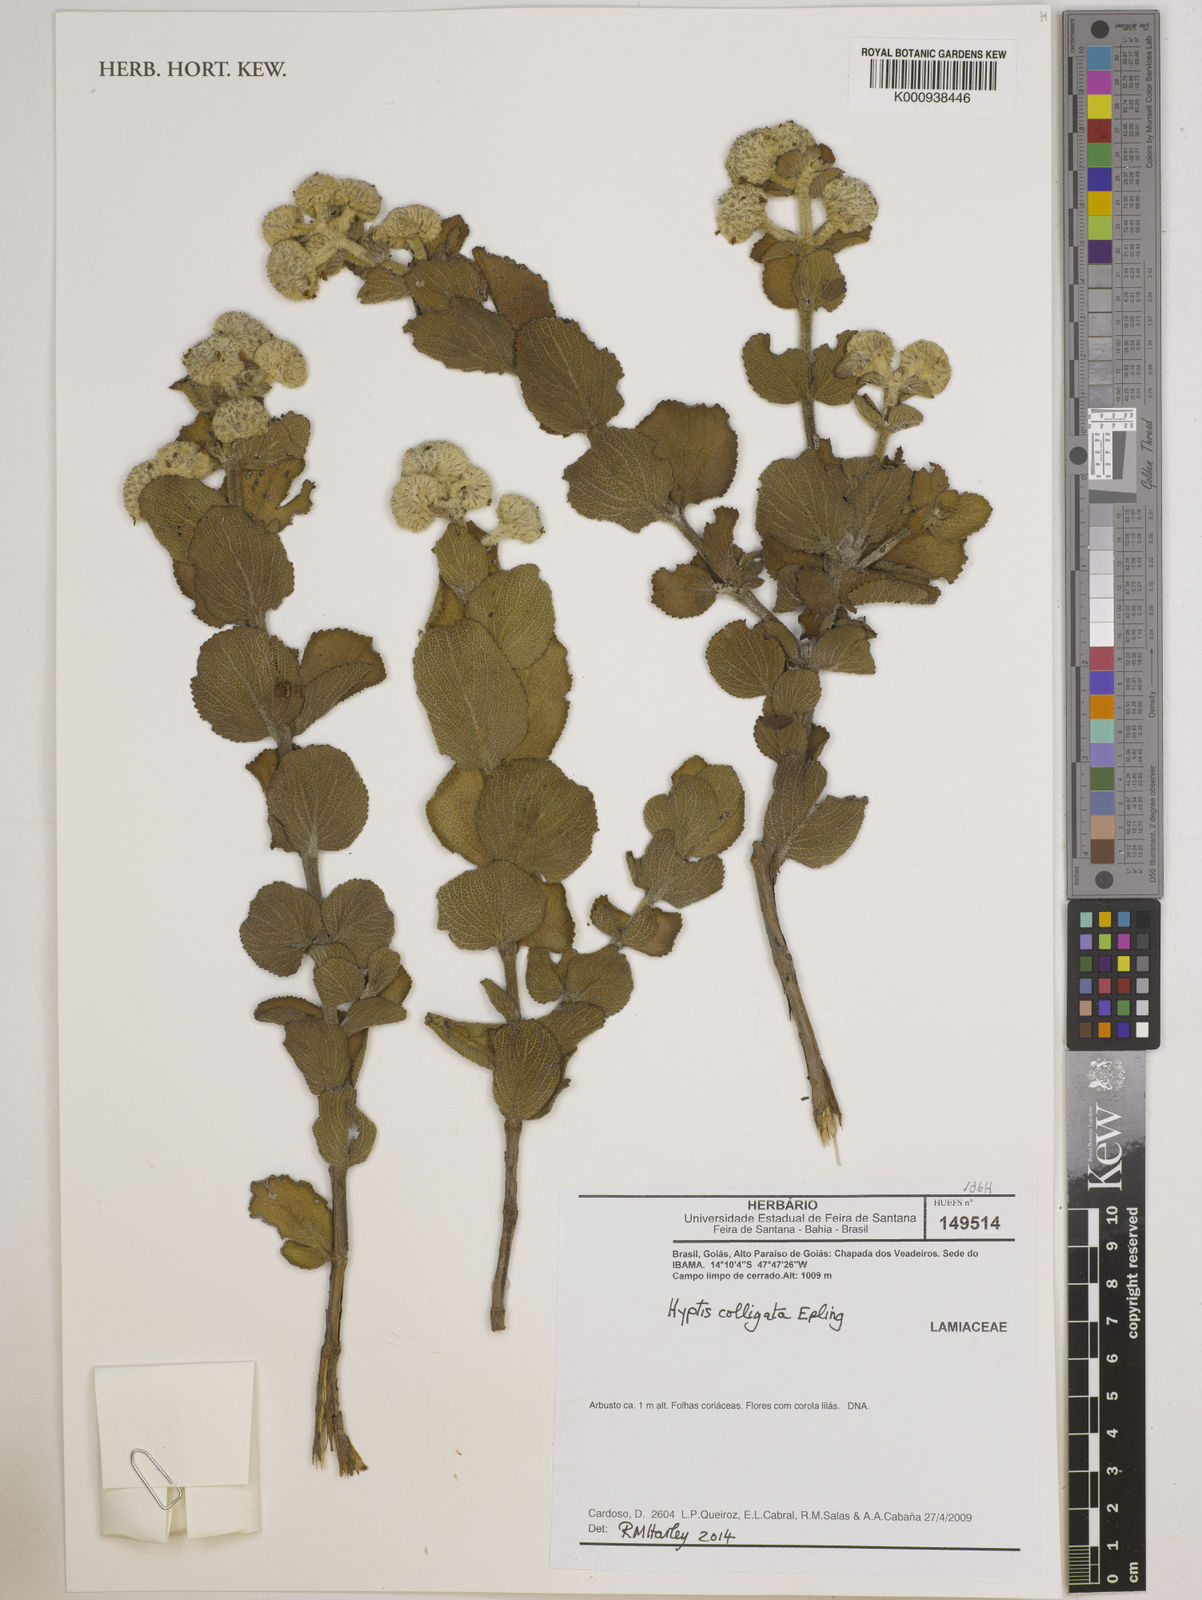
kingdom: Plantae
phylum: Tracheophyta
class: Magnoliopsida
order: Lamiales
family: Lamiaceae
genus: Hyptis
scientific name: Hyptis colligata
